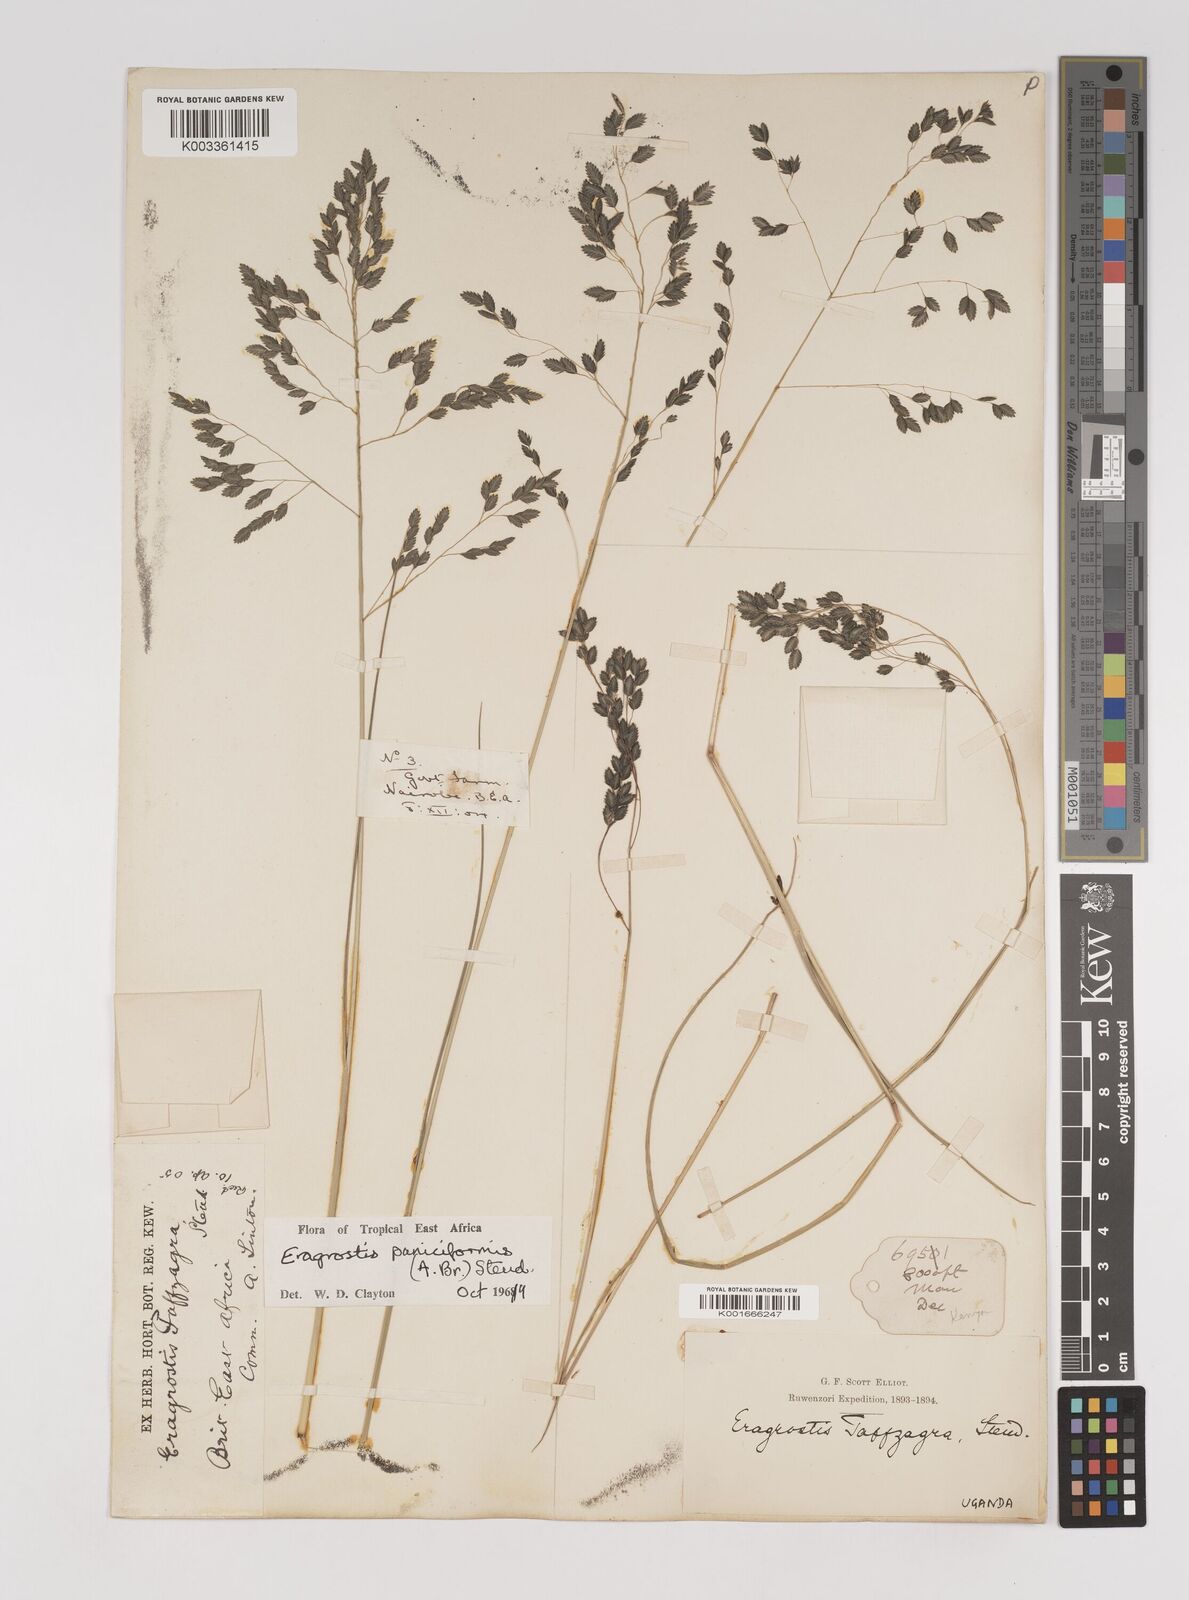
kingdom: Plantae
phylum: Tracheophyta
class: Liliopsida
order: Poales
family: Poaceae
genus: Eragrostis
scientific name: Eragrostis paniciformis
